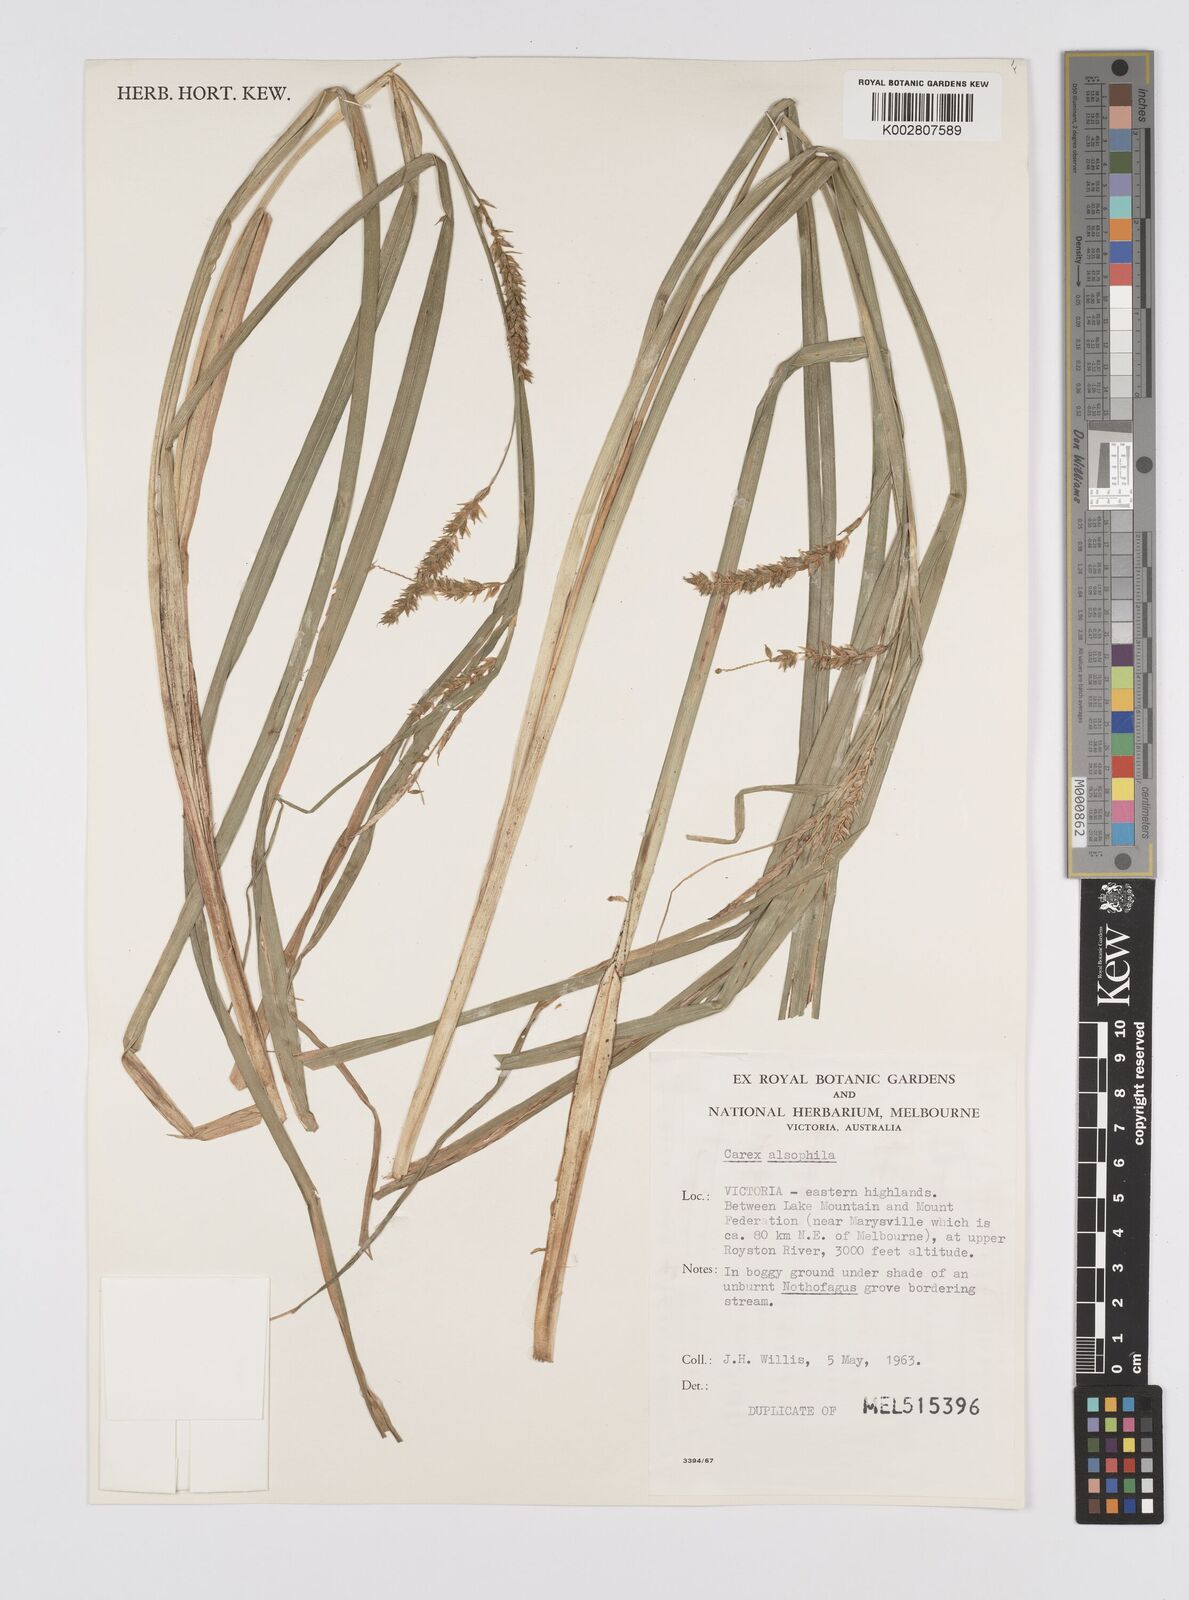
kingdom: Plantae
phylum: Tracheophyta
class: Liliopsida
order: Poales
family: Cyperaceae
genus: Carex
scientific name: Carex alsophila
